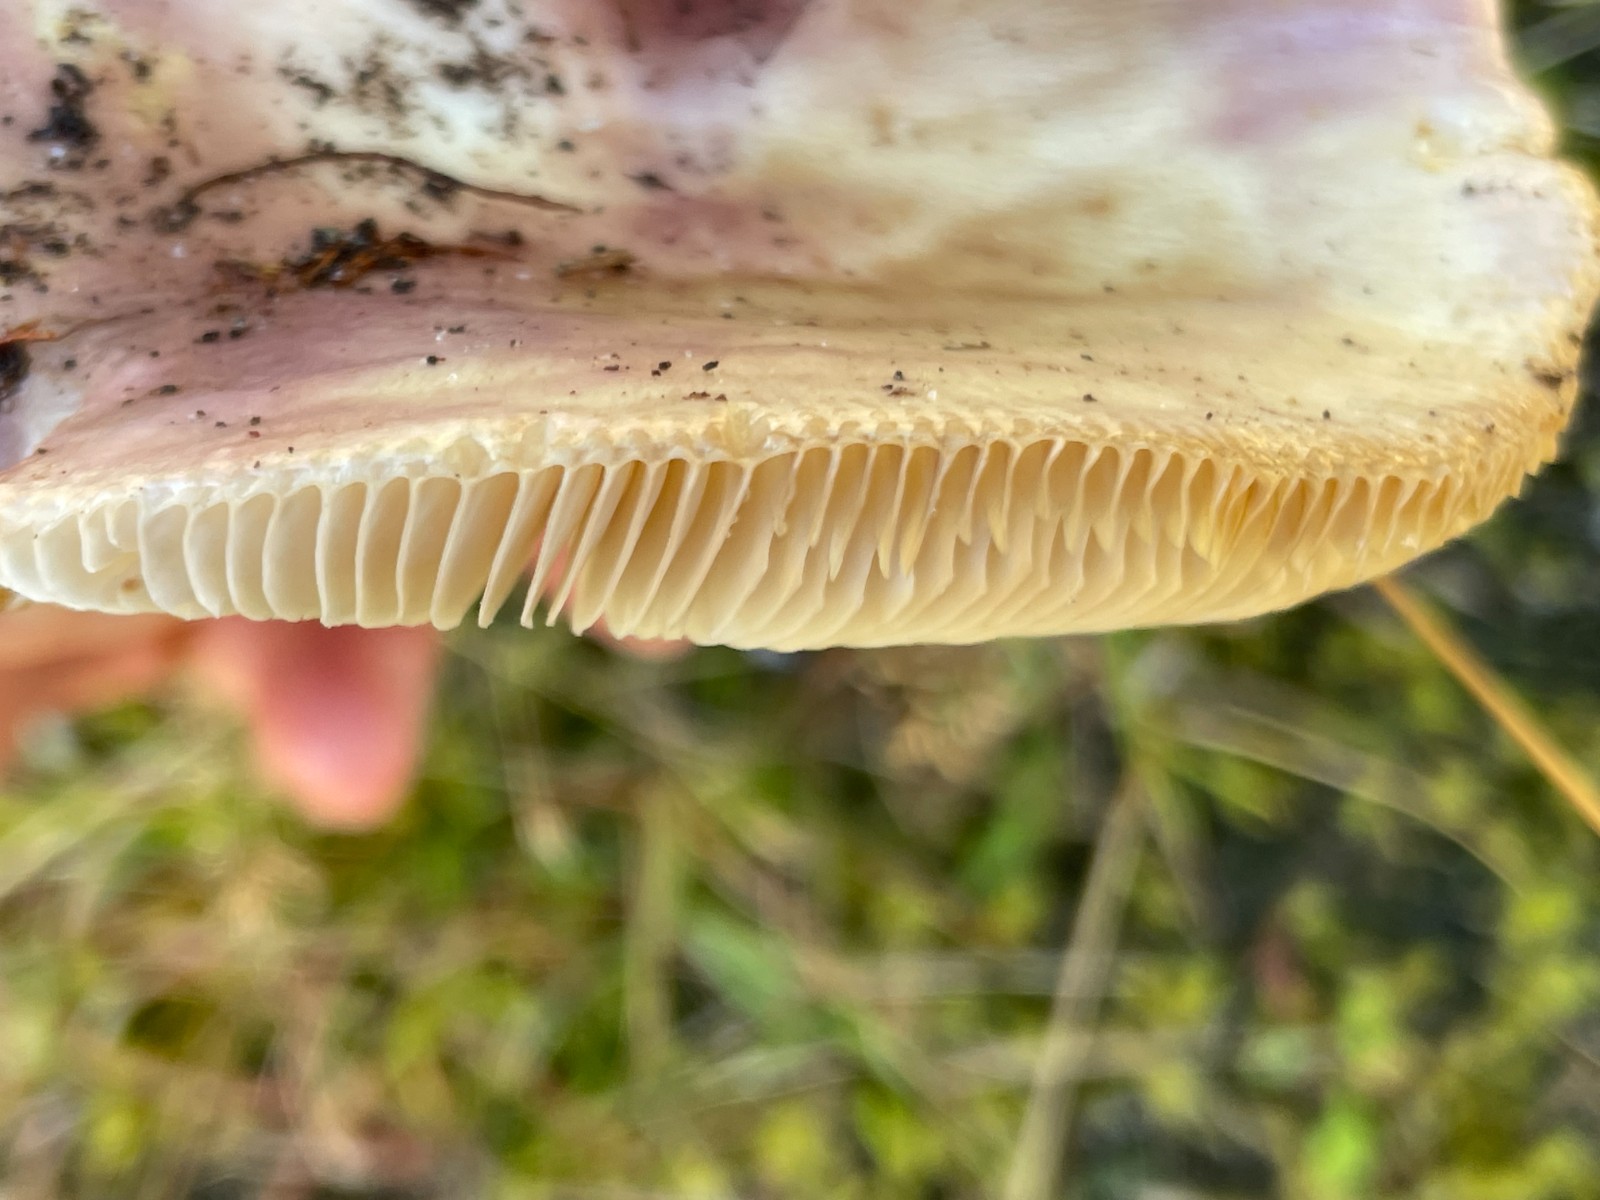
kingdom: Fungi
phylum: Basidiomycota
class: Agaricomycetes
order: Russulales
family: Russulaceae
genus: Russula
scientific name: Russula vesca
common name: spiselig skørhat
